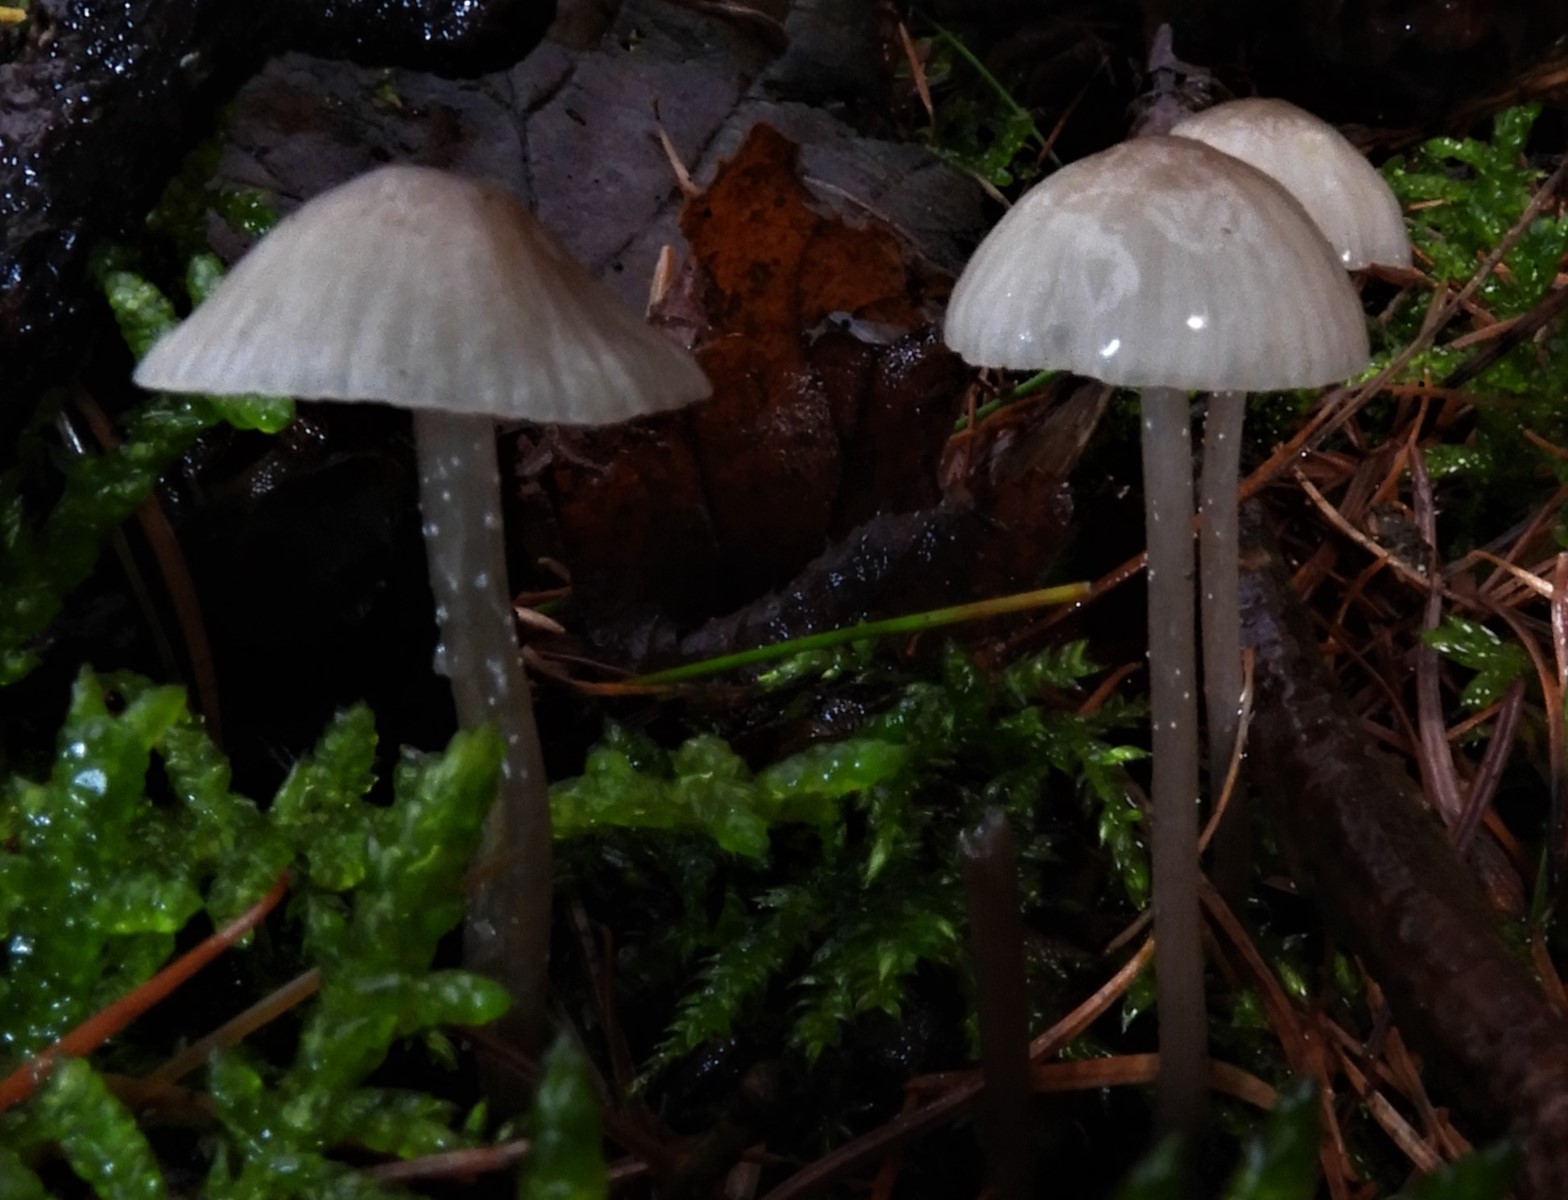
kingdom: Fungi
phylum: Basidiomycota
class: Agaricomycetes
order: Agaricales
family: Mycenaceae
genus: Mycena
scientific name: Mycena
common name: huesvamp
